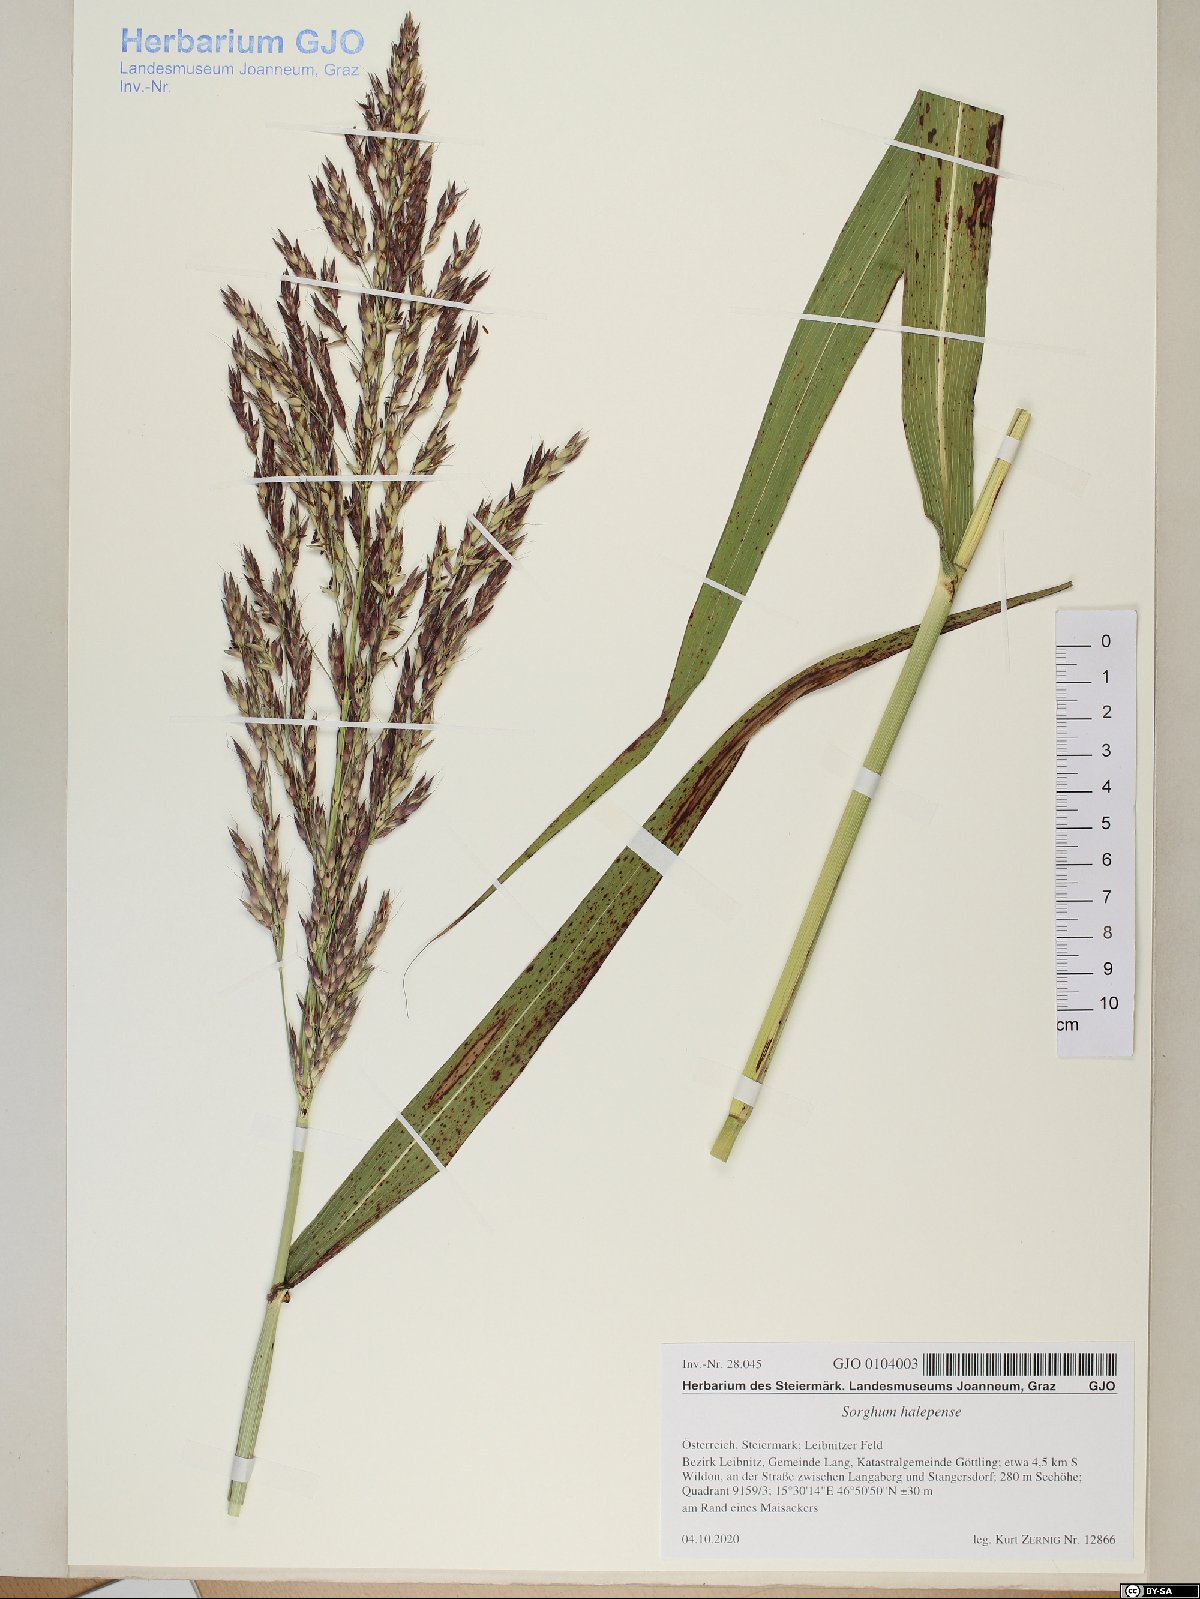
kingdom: Plantae
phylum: Tracheophyta
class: Liliopsida
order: Poales
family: Poaceae
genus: Sorghum
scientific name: Sorghum halepense
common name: Johnson-grass
